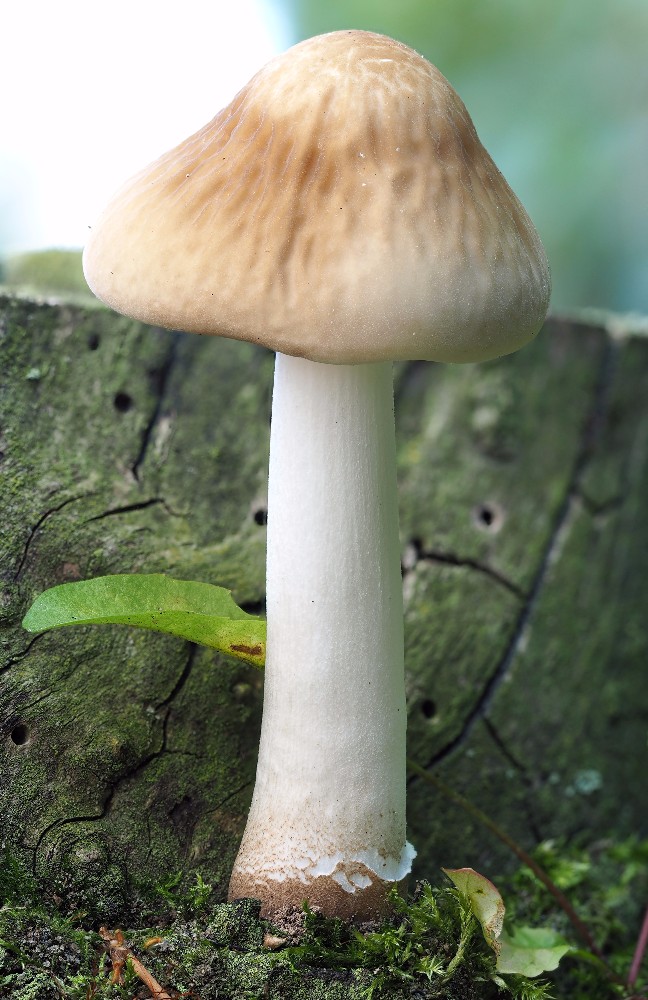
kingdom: Fungi
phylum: Basidiomycota
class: Agaricomycetes
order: Agaricales
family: Physalacriaceae
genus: Hymenopellis
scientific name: Hymenopellis radicata
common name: almindelig pælerodshat
